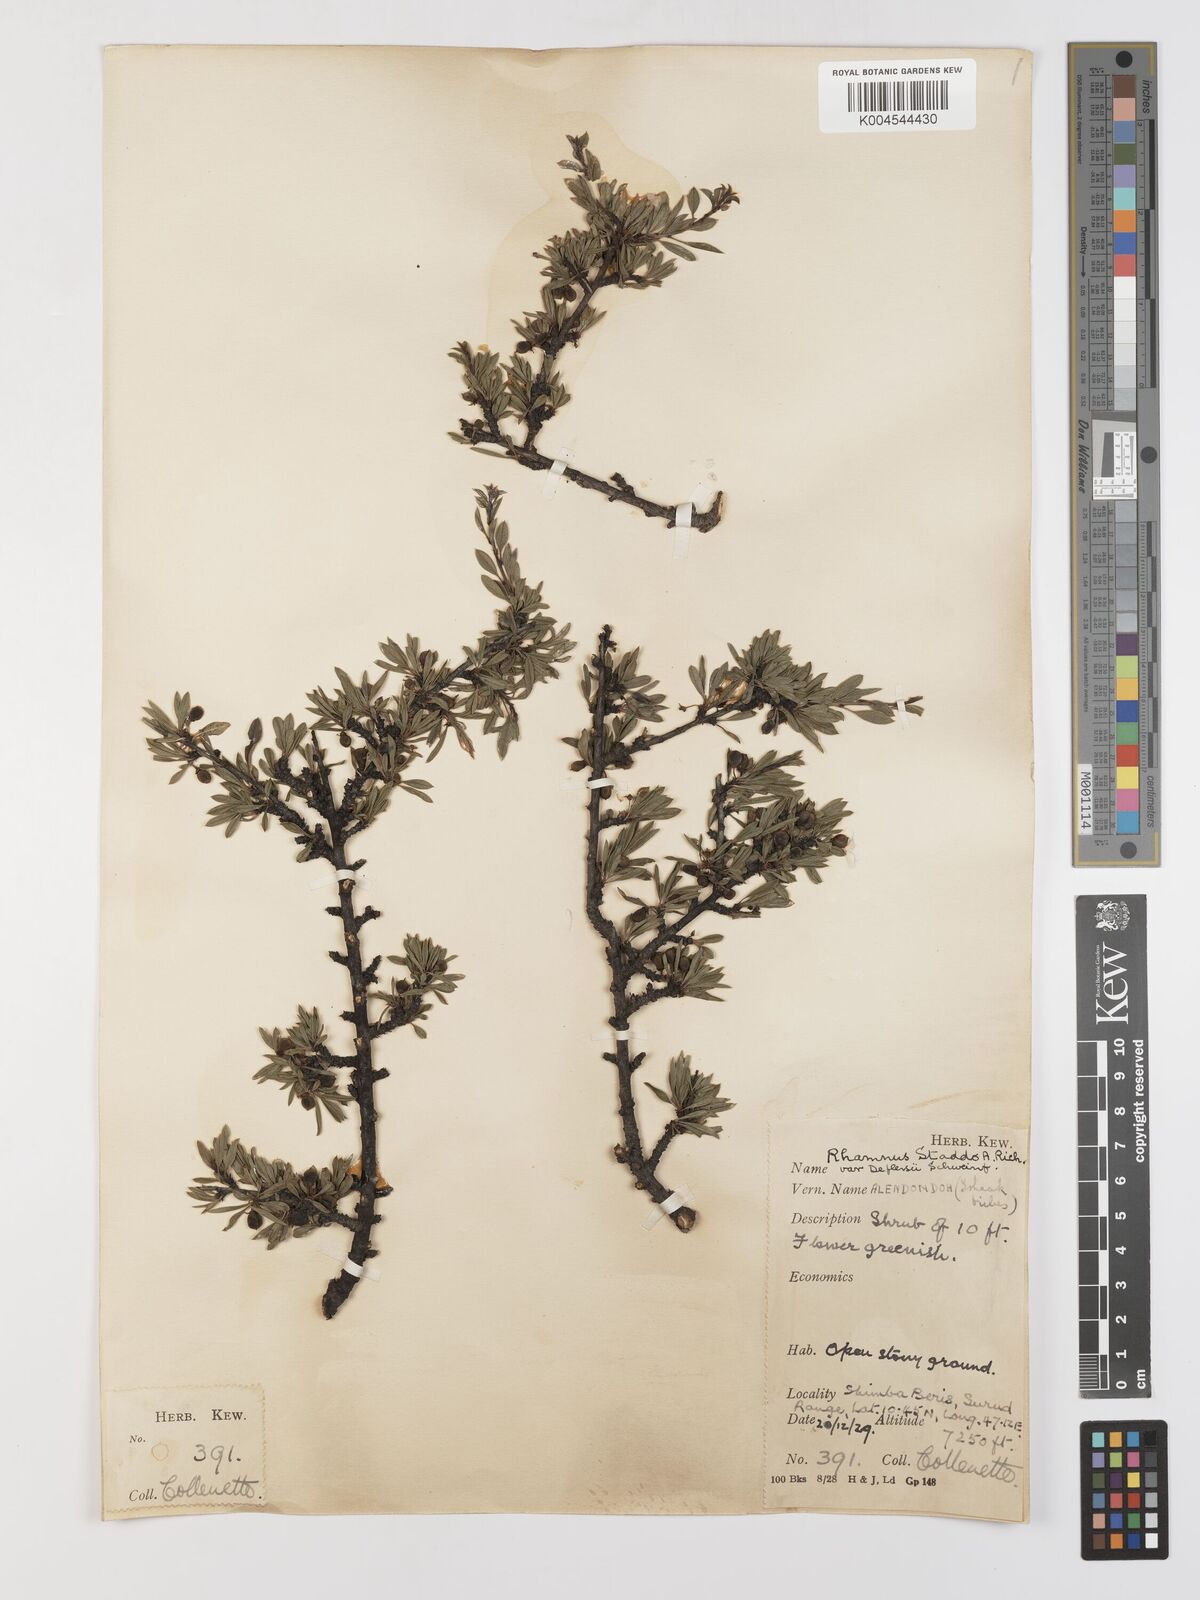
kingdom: Plantae
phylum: Tracheophyta
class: Magnoliopsida
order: Rosales
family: Rhamnaceae
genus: Rhamnus
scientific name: Rhamnus staddo
